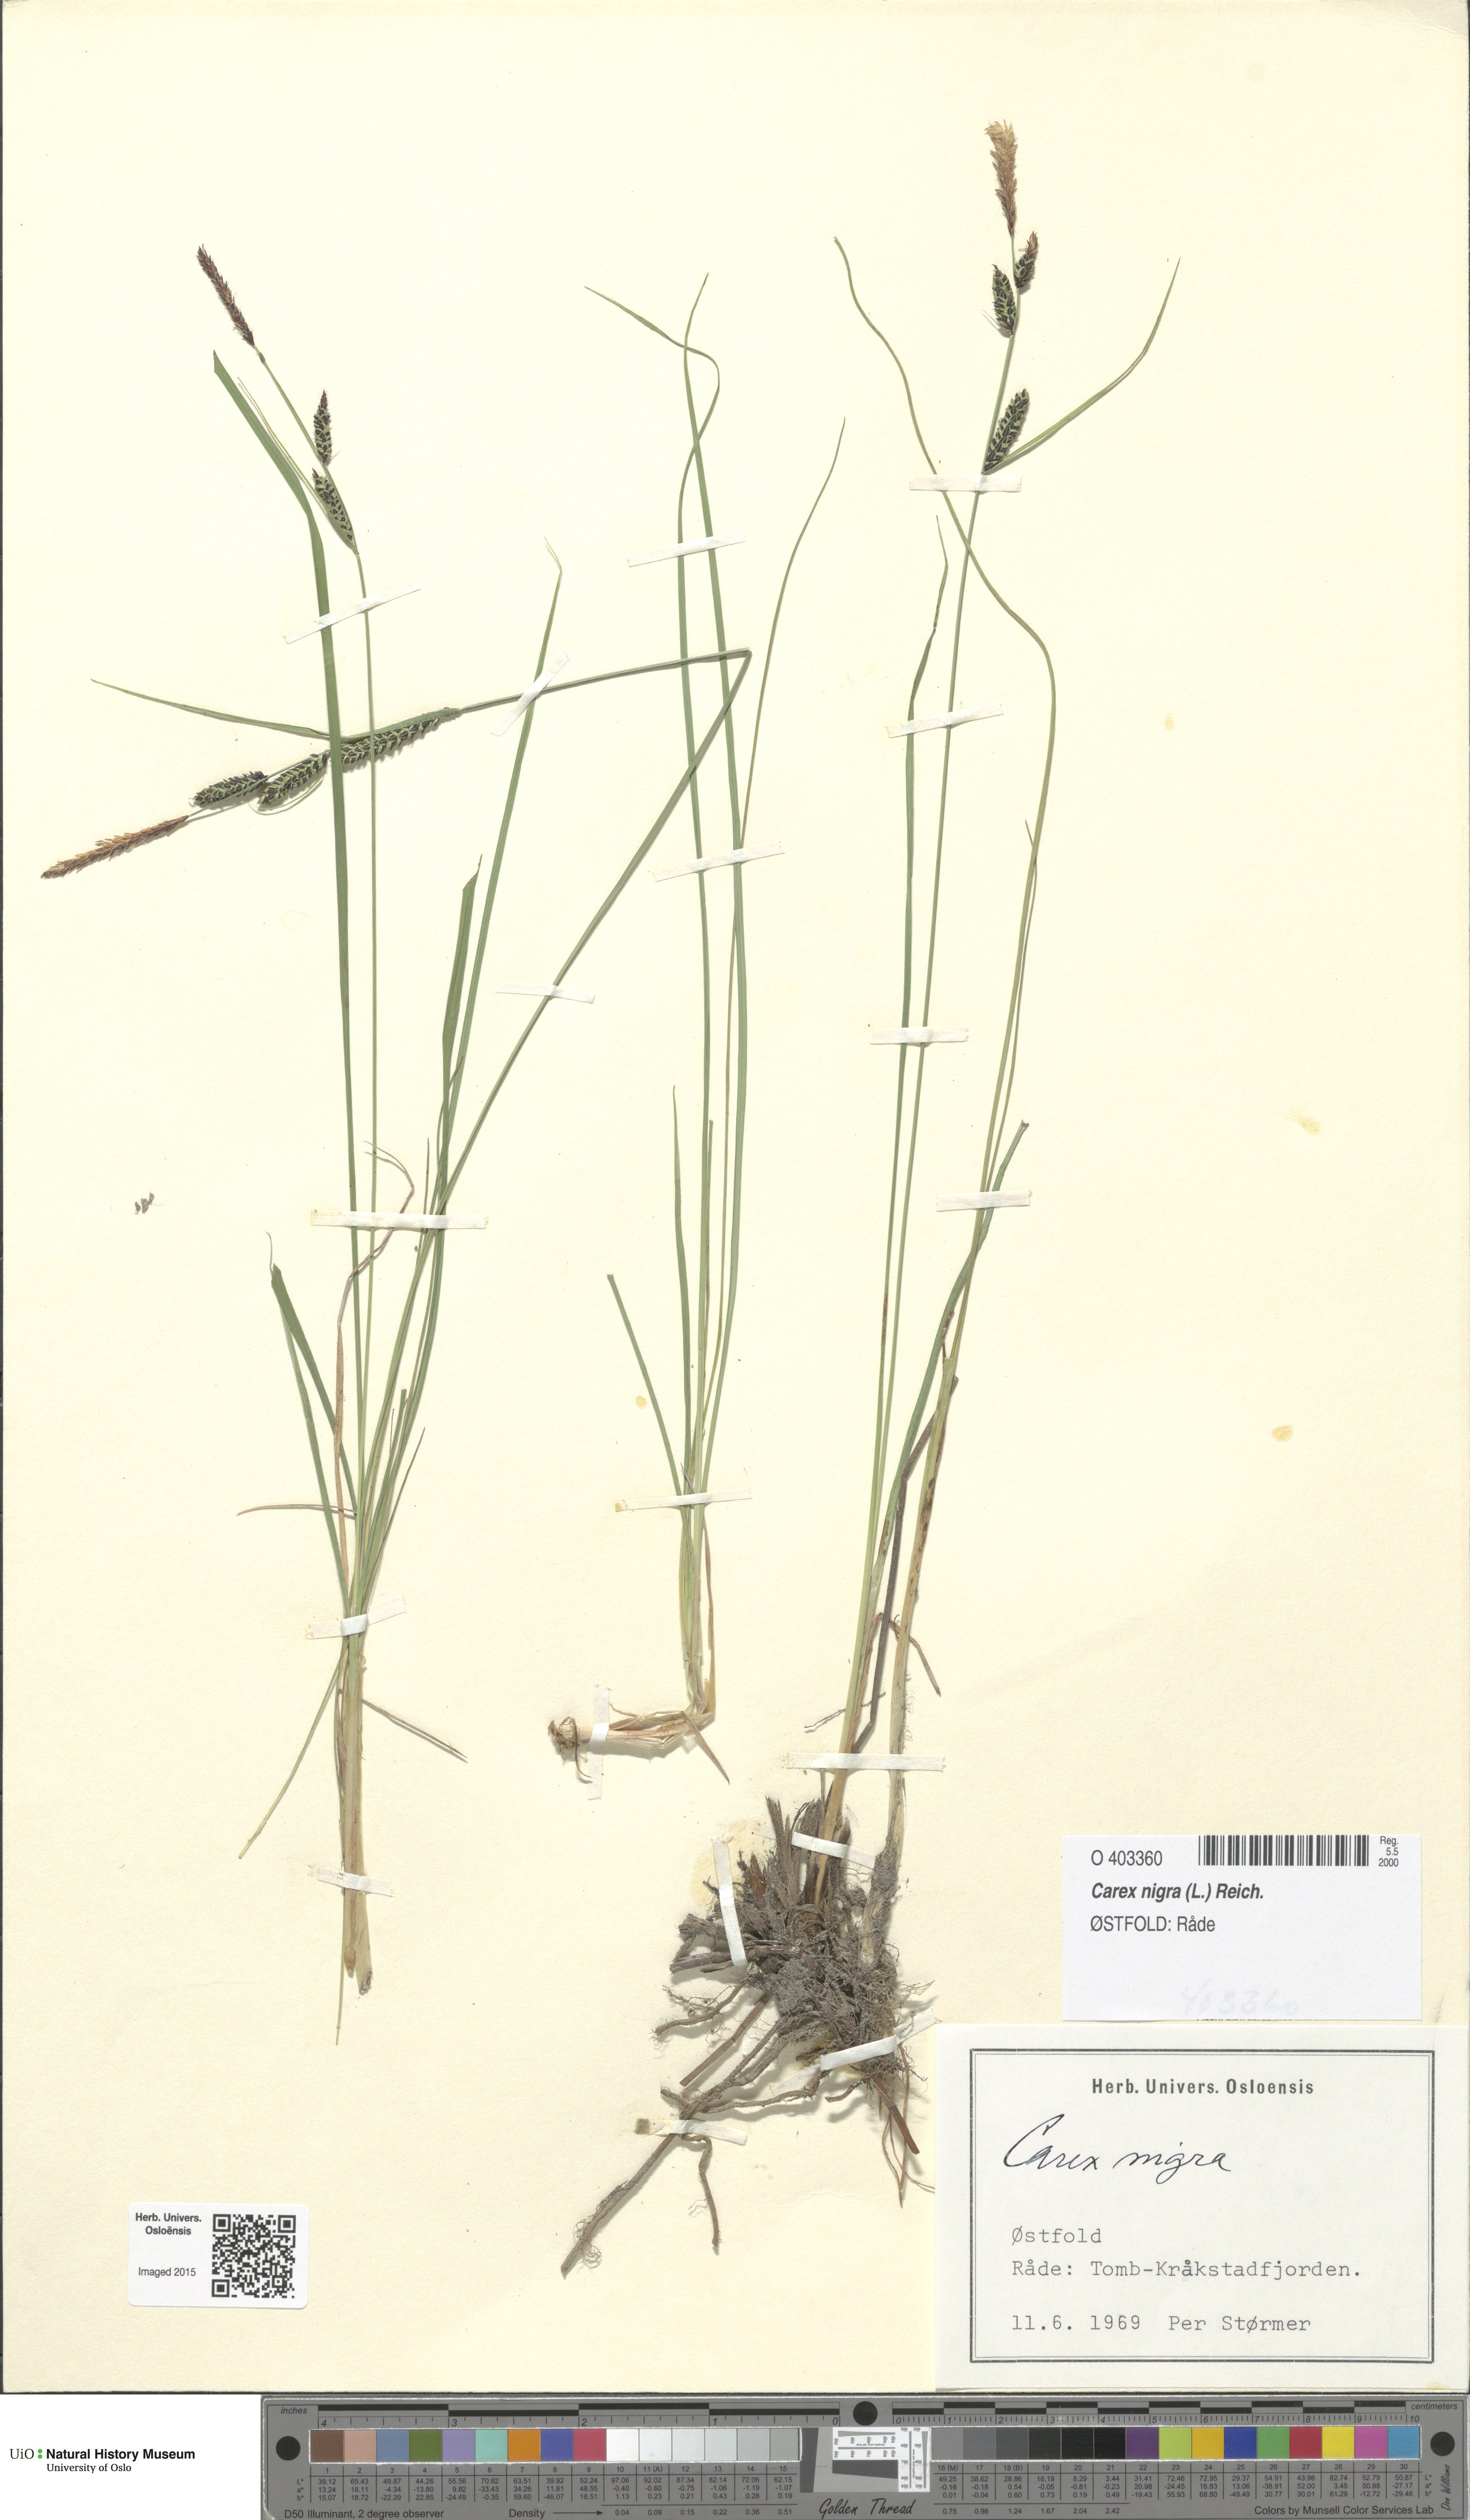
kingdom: Plantae
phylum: Tracheophyta
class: Liliopsida
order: Poales
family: Cyperaceae
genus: Carex
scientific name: Carex nigra
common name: Common sedge
